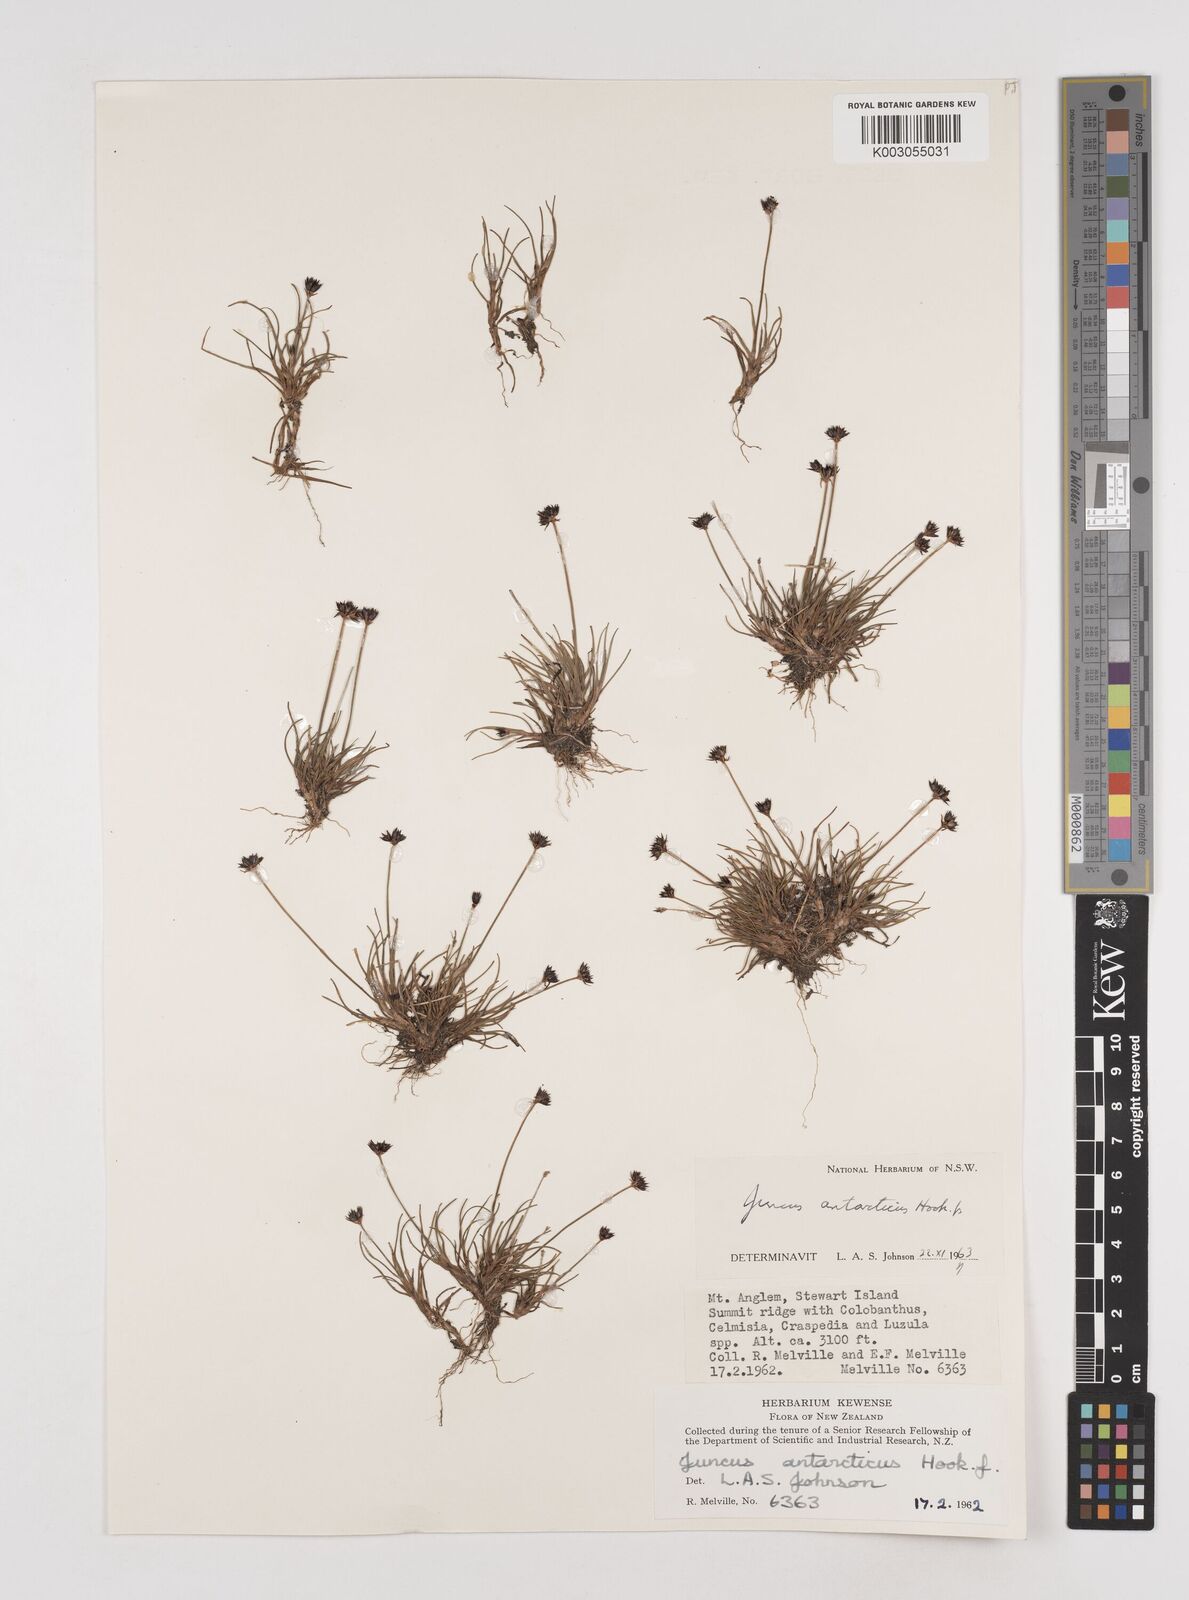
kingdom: Plantae
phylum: Tracheophyta
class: Liliopsida
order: Poales
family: Juncaceae
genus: Juncus
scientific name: Juncus antarcticus
